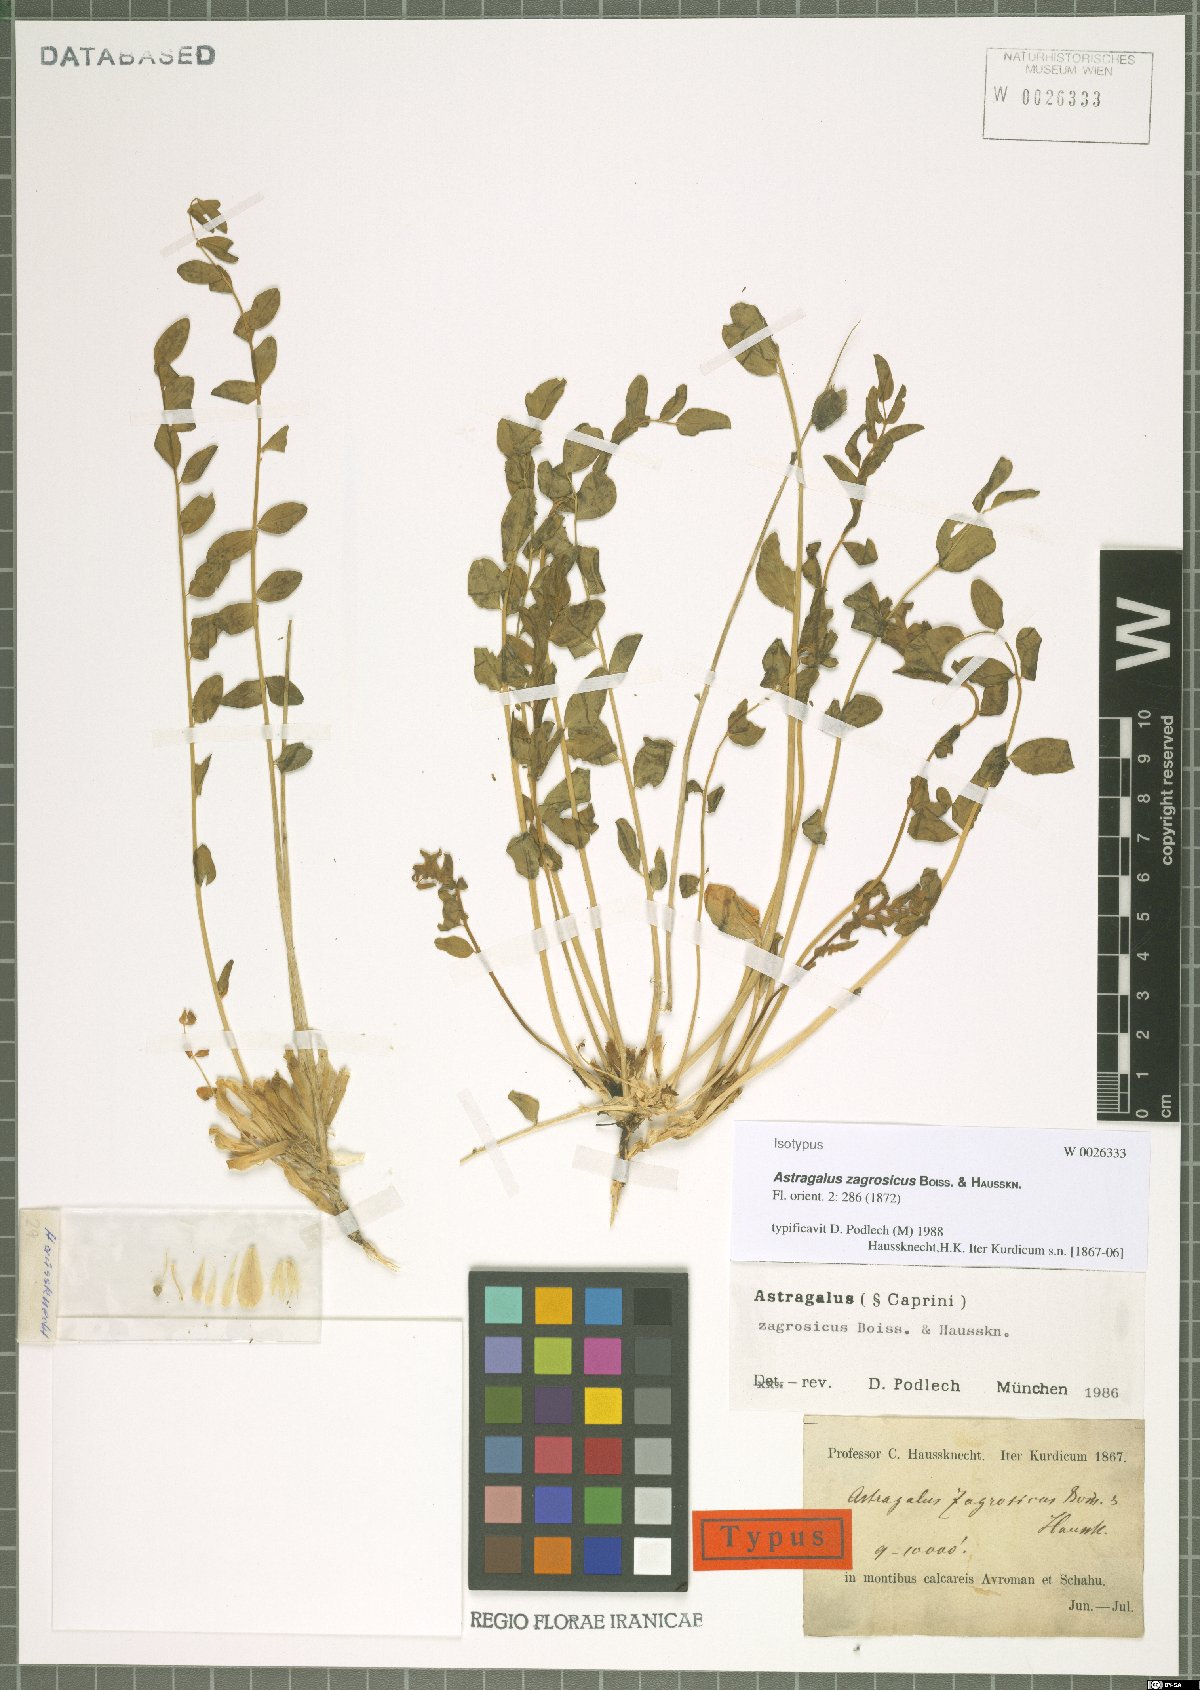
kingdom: Plantae
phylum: Tracheophyta
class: Magnoliopsida
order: Fabales
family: Fabaceae
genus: Astragalus
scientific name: Astragalus zagrosicus
